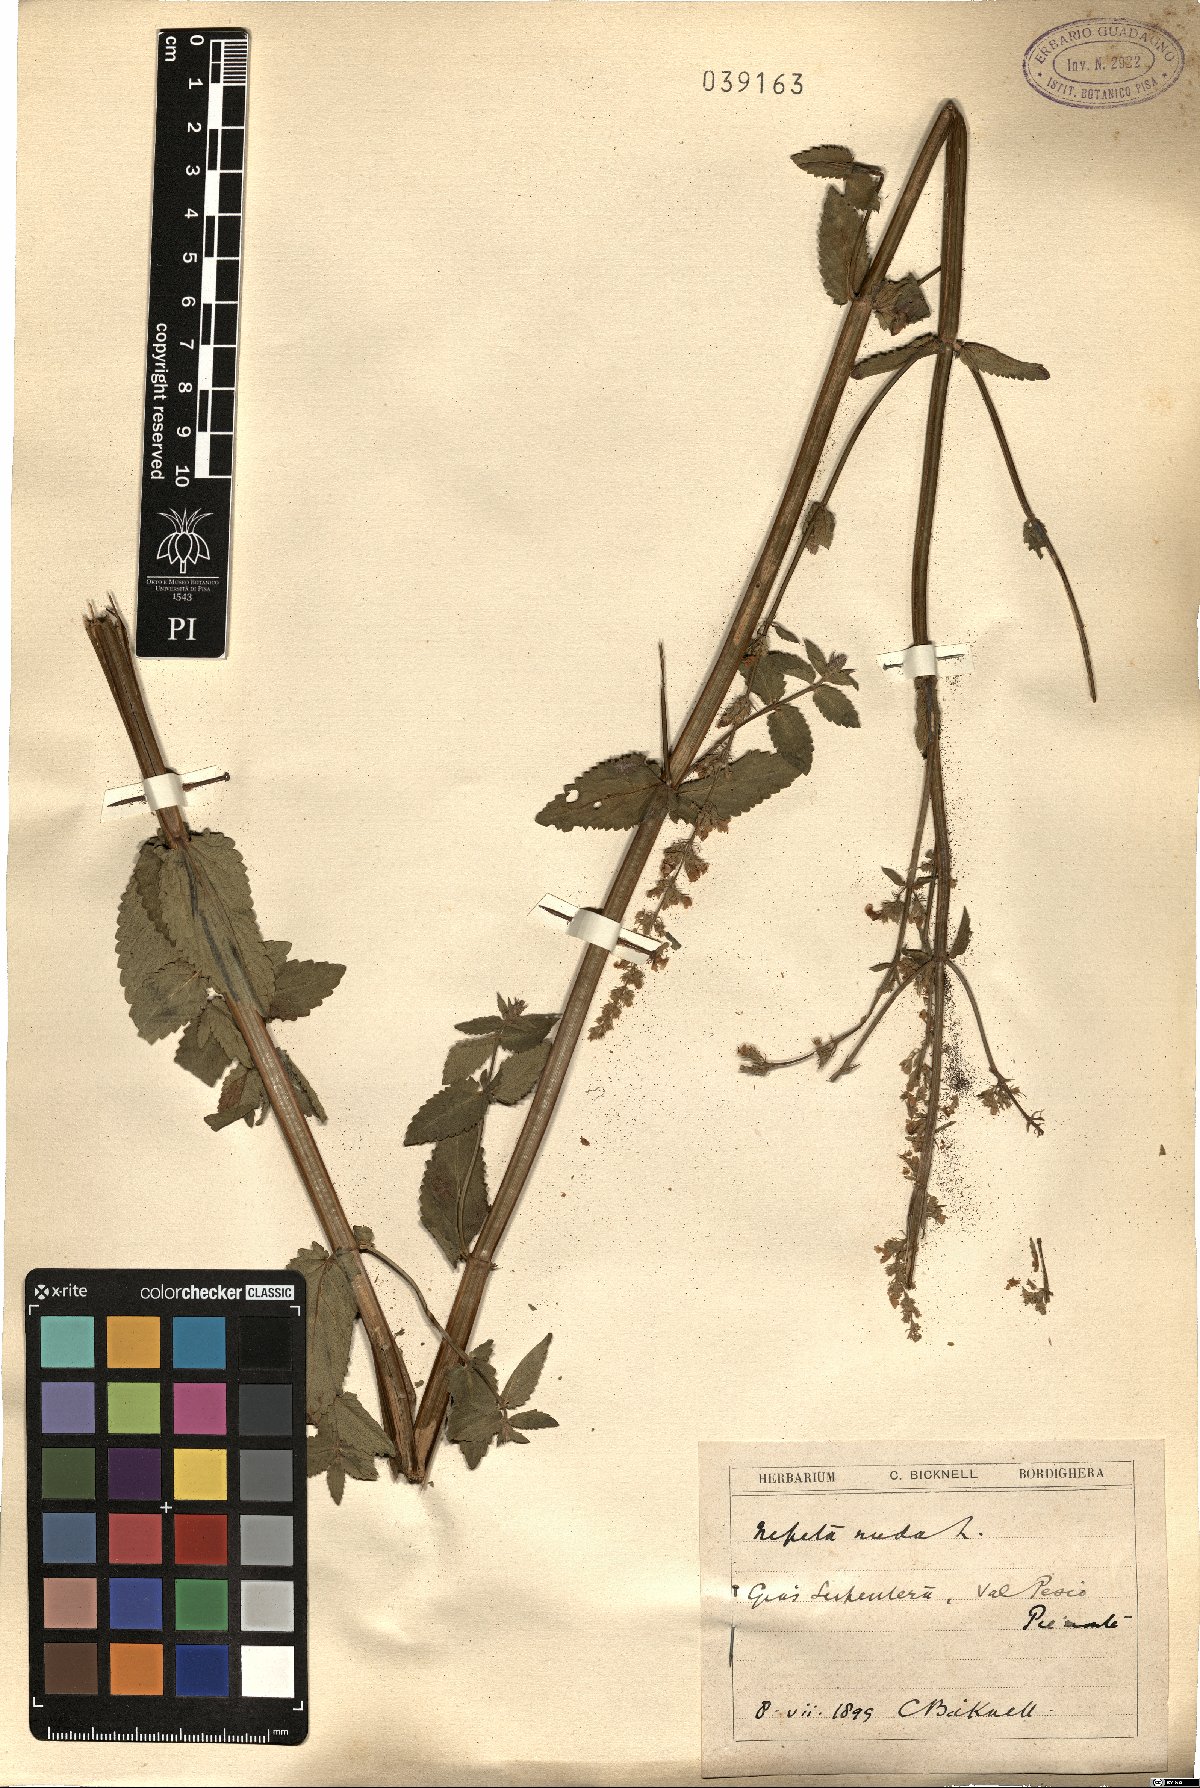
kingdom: Plantae
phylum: Tracheophyta
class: Magnoliopsida
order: Lamiales
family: Lamiaceae
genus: Nepeta
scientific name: Nepeta nuda
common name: Hairless catmint
